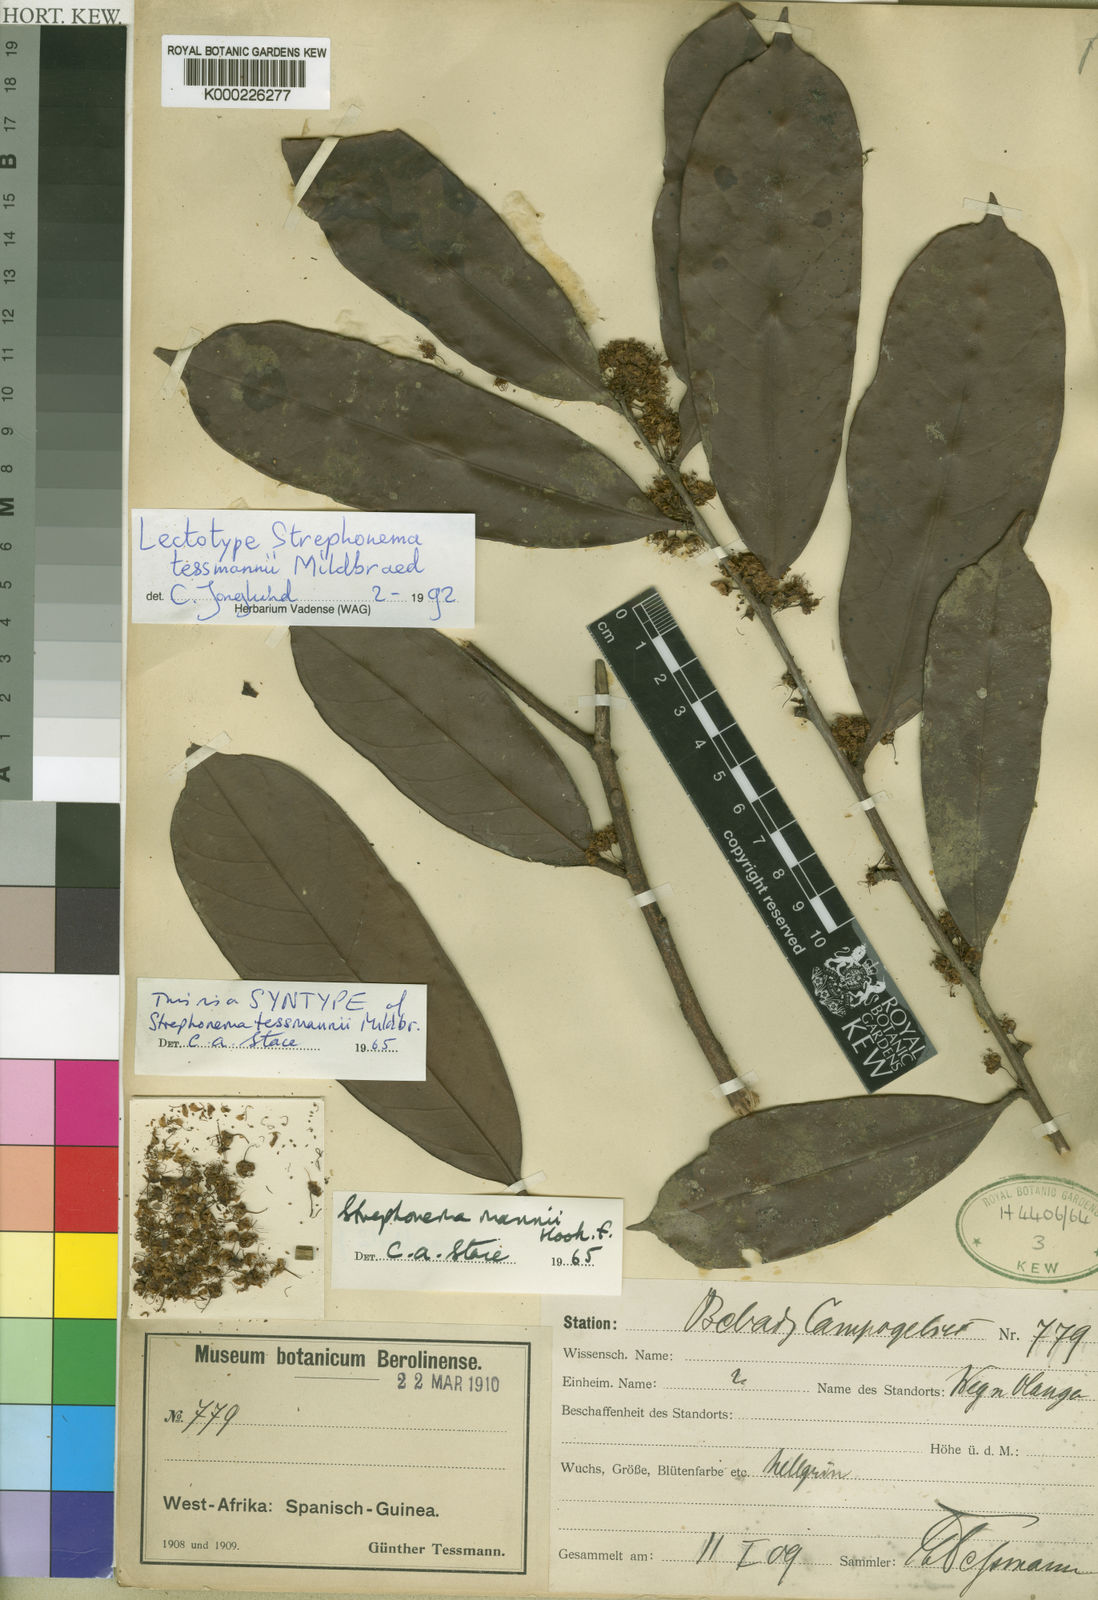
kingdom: Plantae
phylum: Tracheophyta
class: Magnoliopsida
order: Myrtales
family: Combretaceae
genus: Strephonema
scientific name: Strephonema mannii
